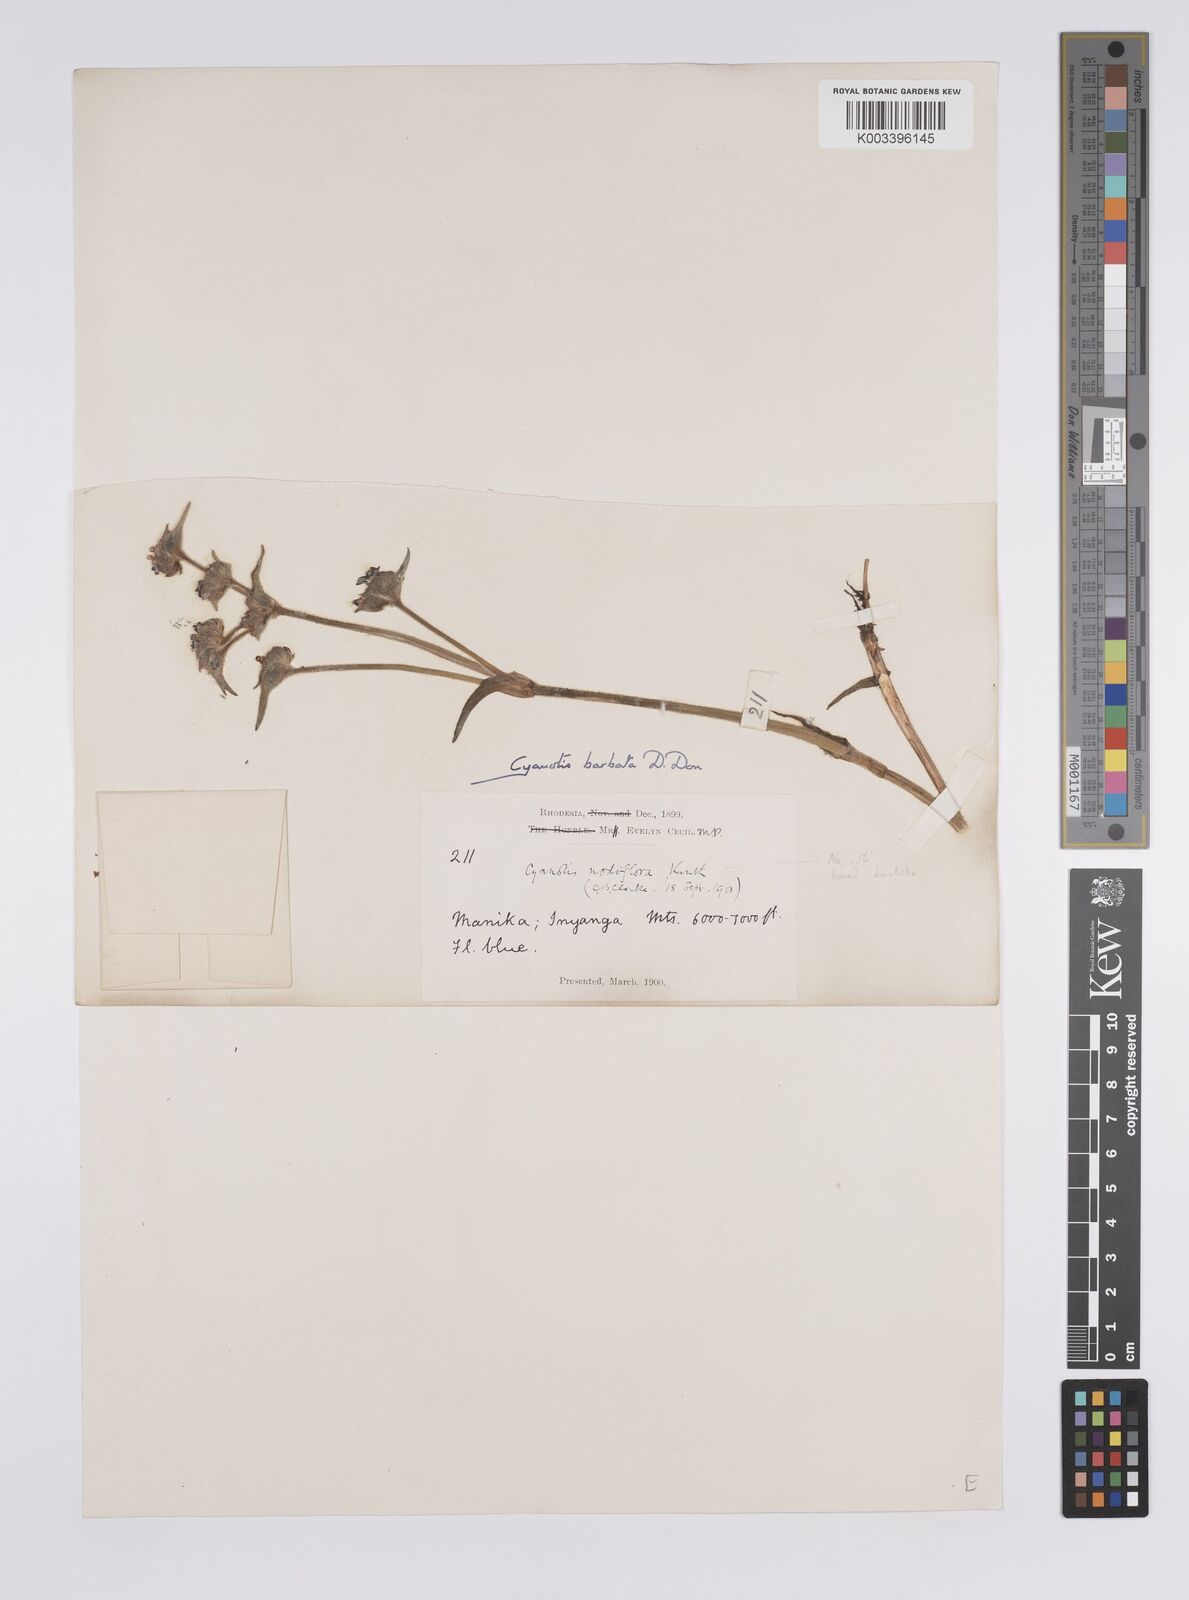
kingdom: Plantae
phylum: Tracheophyta
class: Liliopsida
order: Commelinales
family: Commelinaceae
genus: Cyanotis
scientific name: Cyanotis vaga
